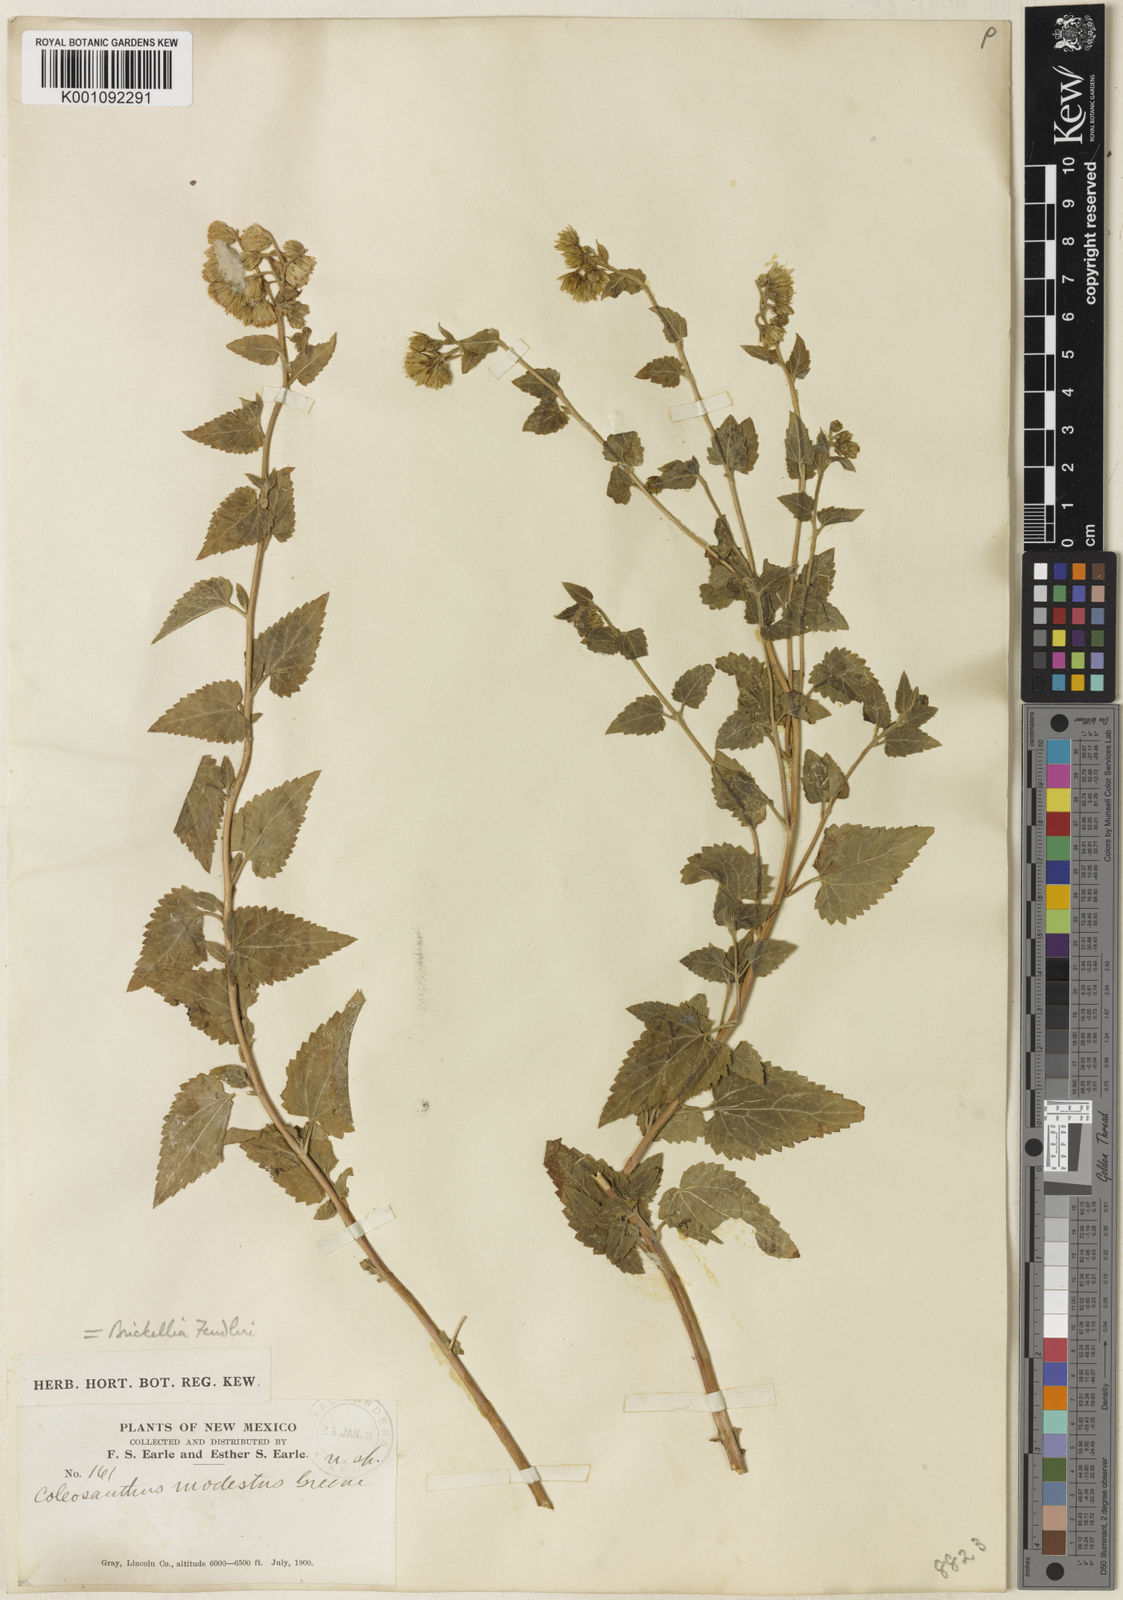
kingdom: Plantae
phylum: Tracheophyta
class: Magnoliopsida
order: Asterales
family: Asteraceae
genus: Brickelliastrum
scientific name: Brickelliastrum fendleri
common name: Fendler's-brickellbush
